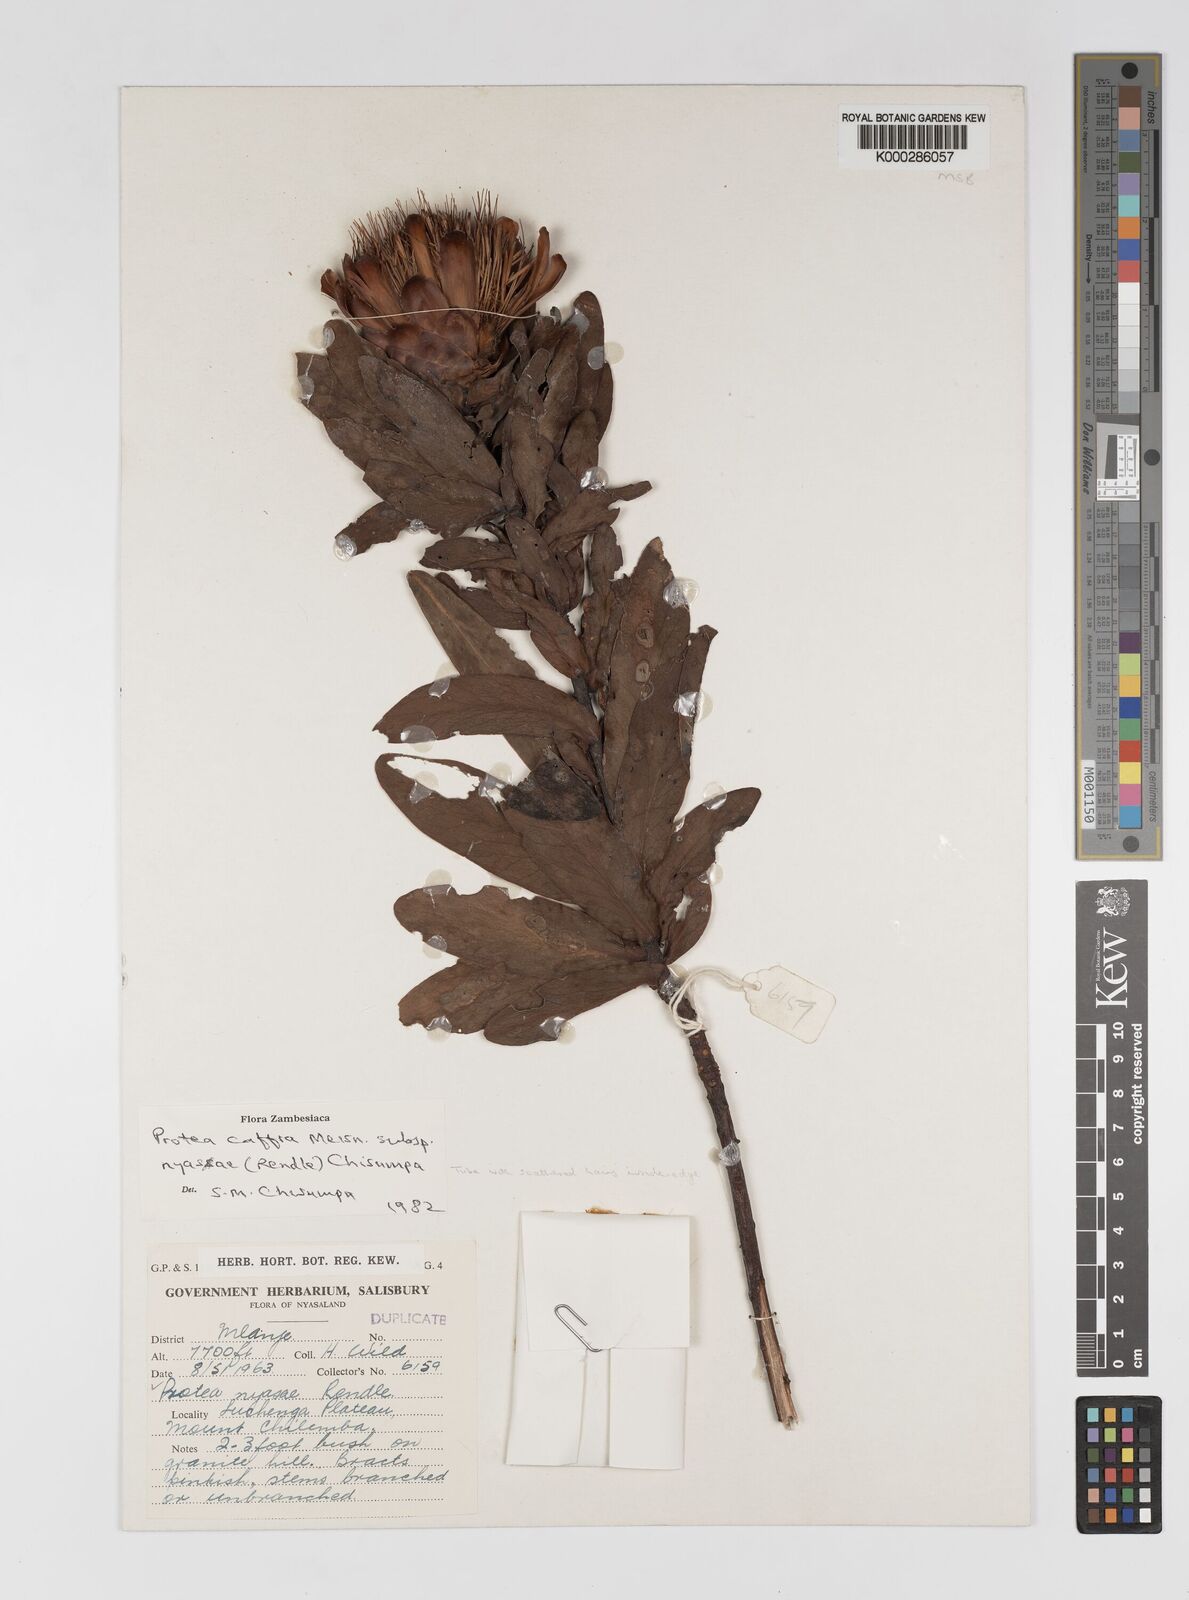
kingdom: Plantae
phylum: Tracheophyta
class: Magnoliopsida
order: Proteales
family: Proteaceae
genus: Protea
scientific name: Protea caffra
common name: Common sugarbush
